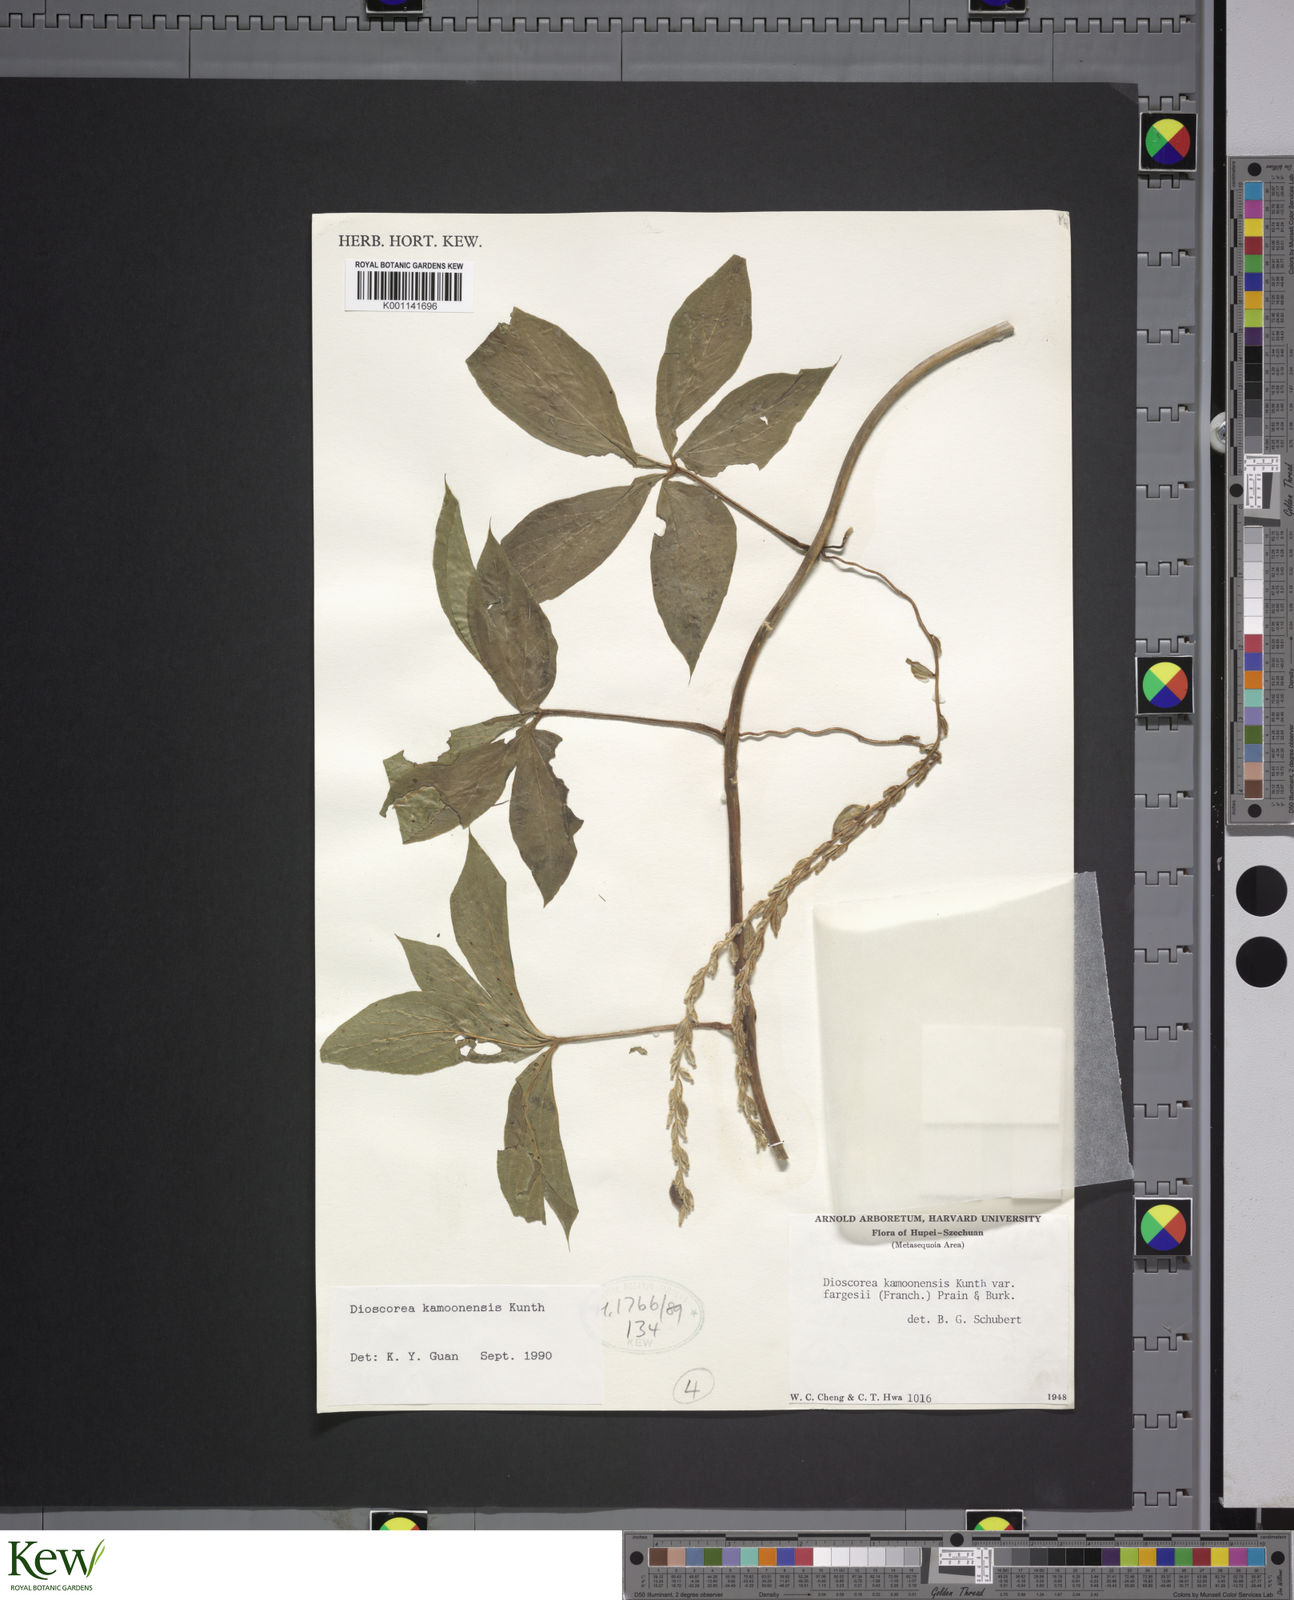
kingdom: Plantae
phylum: Tracheophyta
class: Liliopsida
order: Dioscoreales
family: Dioscoreaceae
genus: Dioscorea
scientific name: Dioscorea kamoonensis
